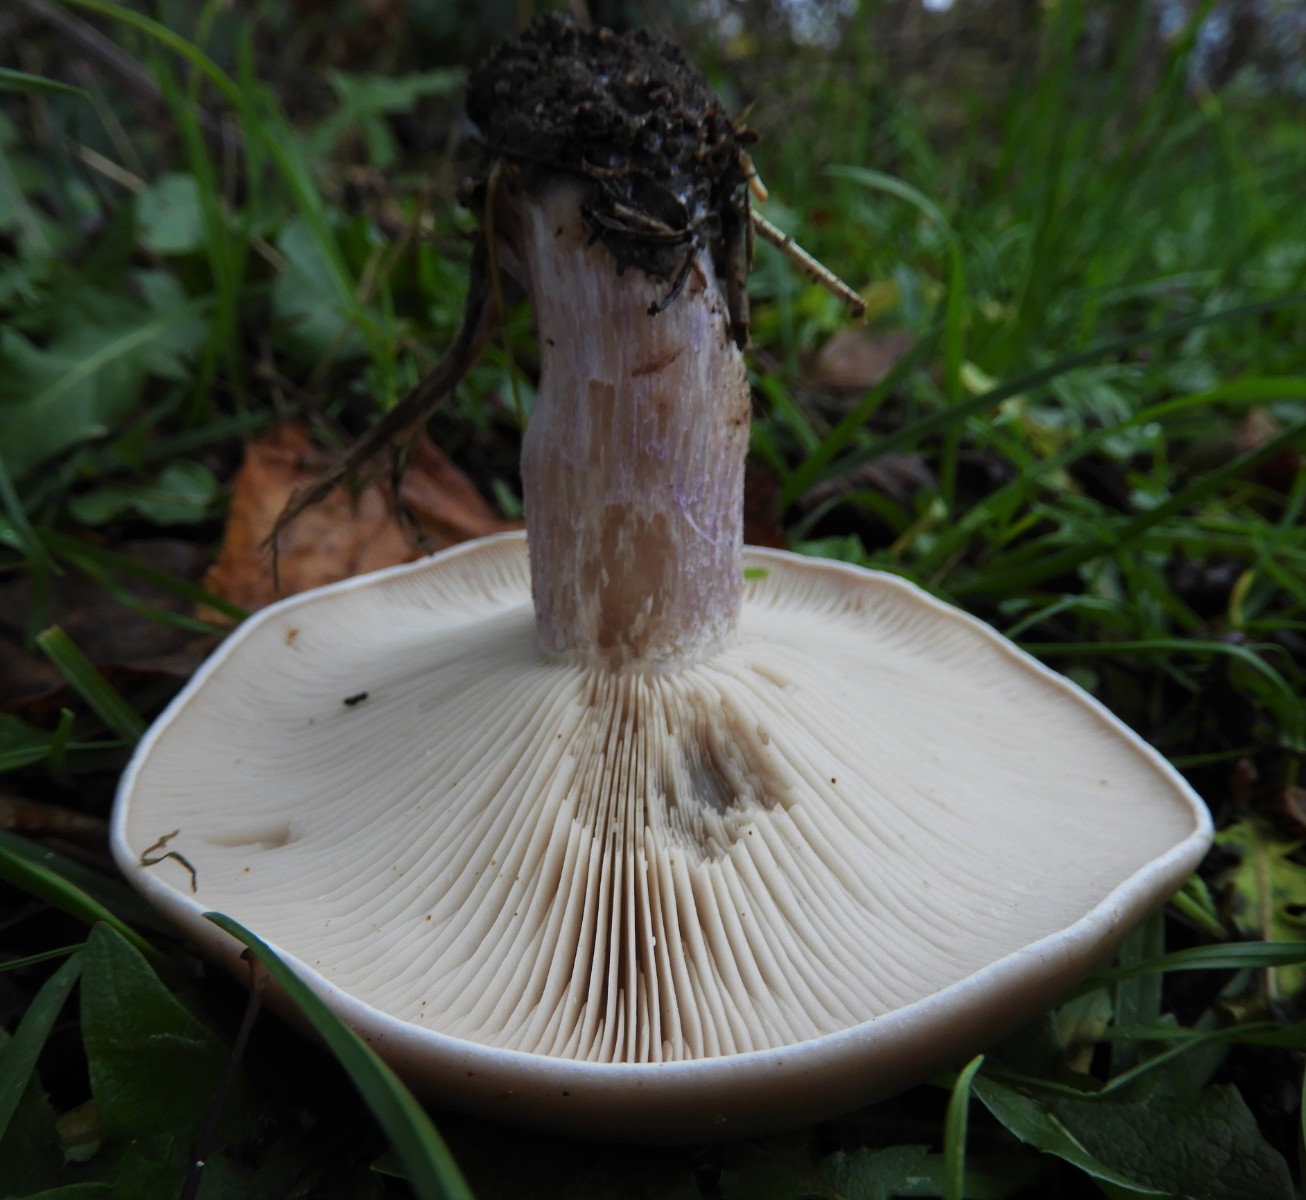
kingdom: Fungi
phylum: Basidiomycota
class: Agaricomycetes
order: Agaricales
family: Tricholomataceae
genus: Lepista
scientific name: Lepista personata
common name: bleg hekseringshat
